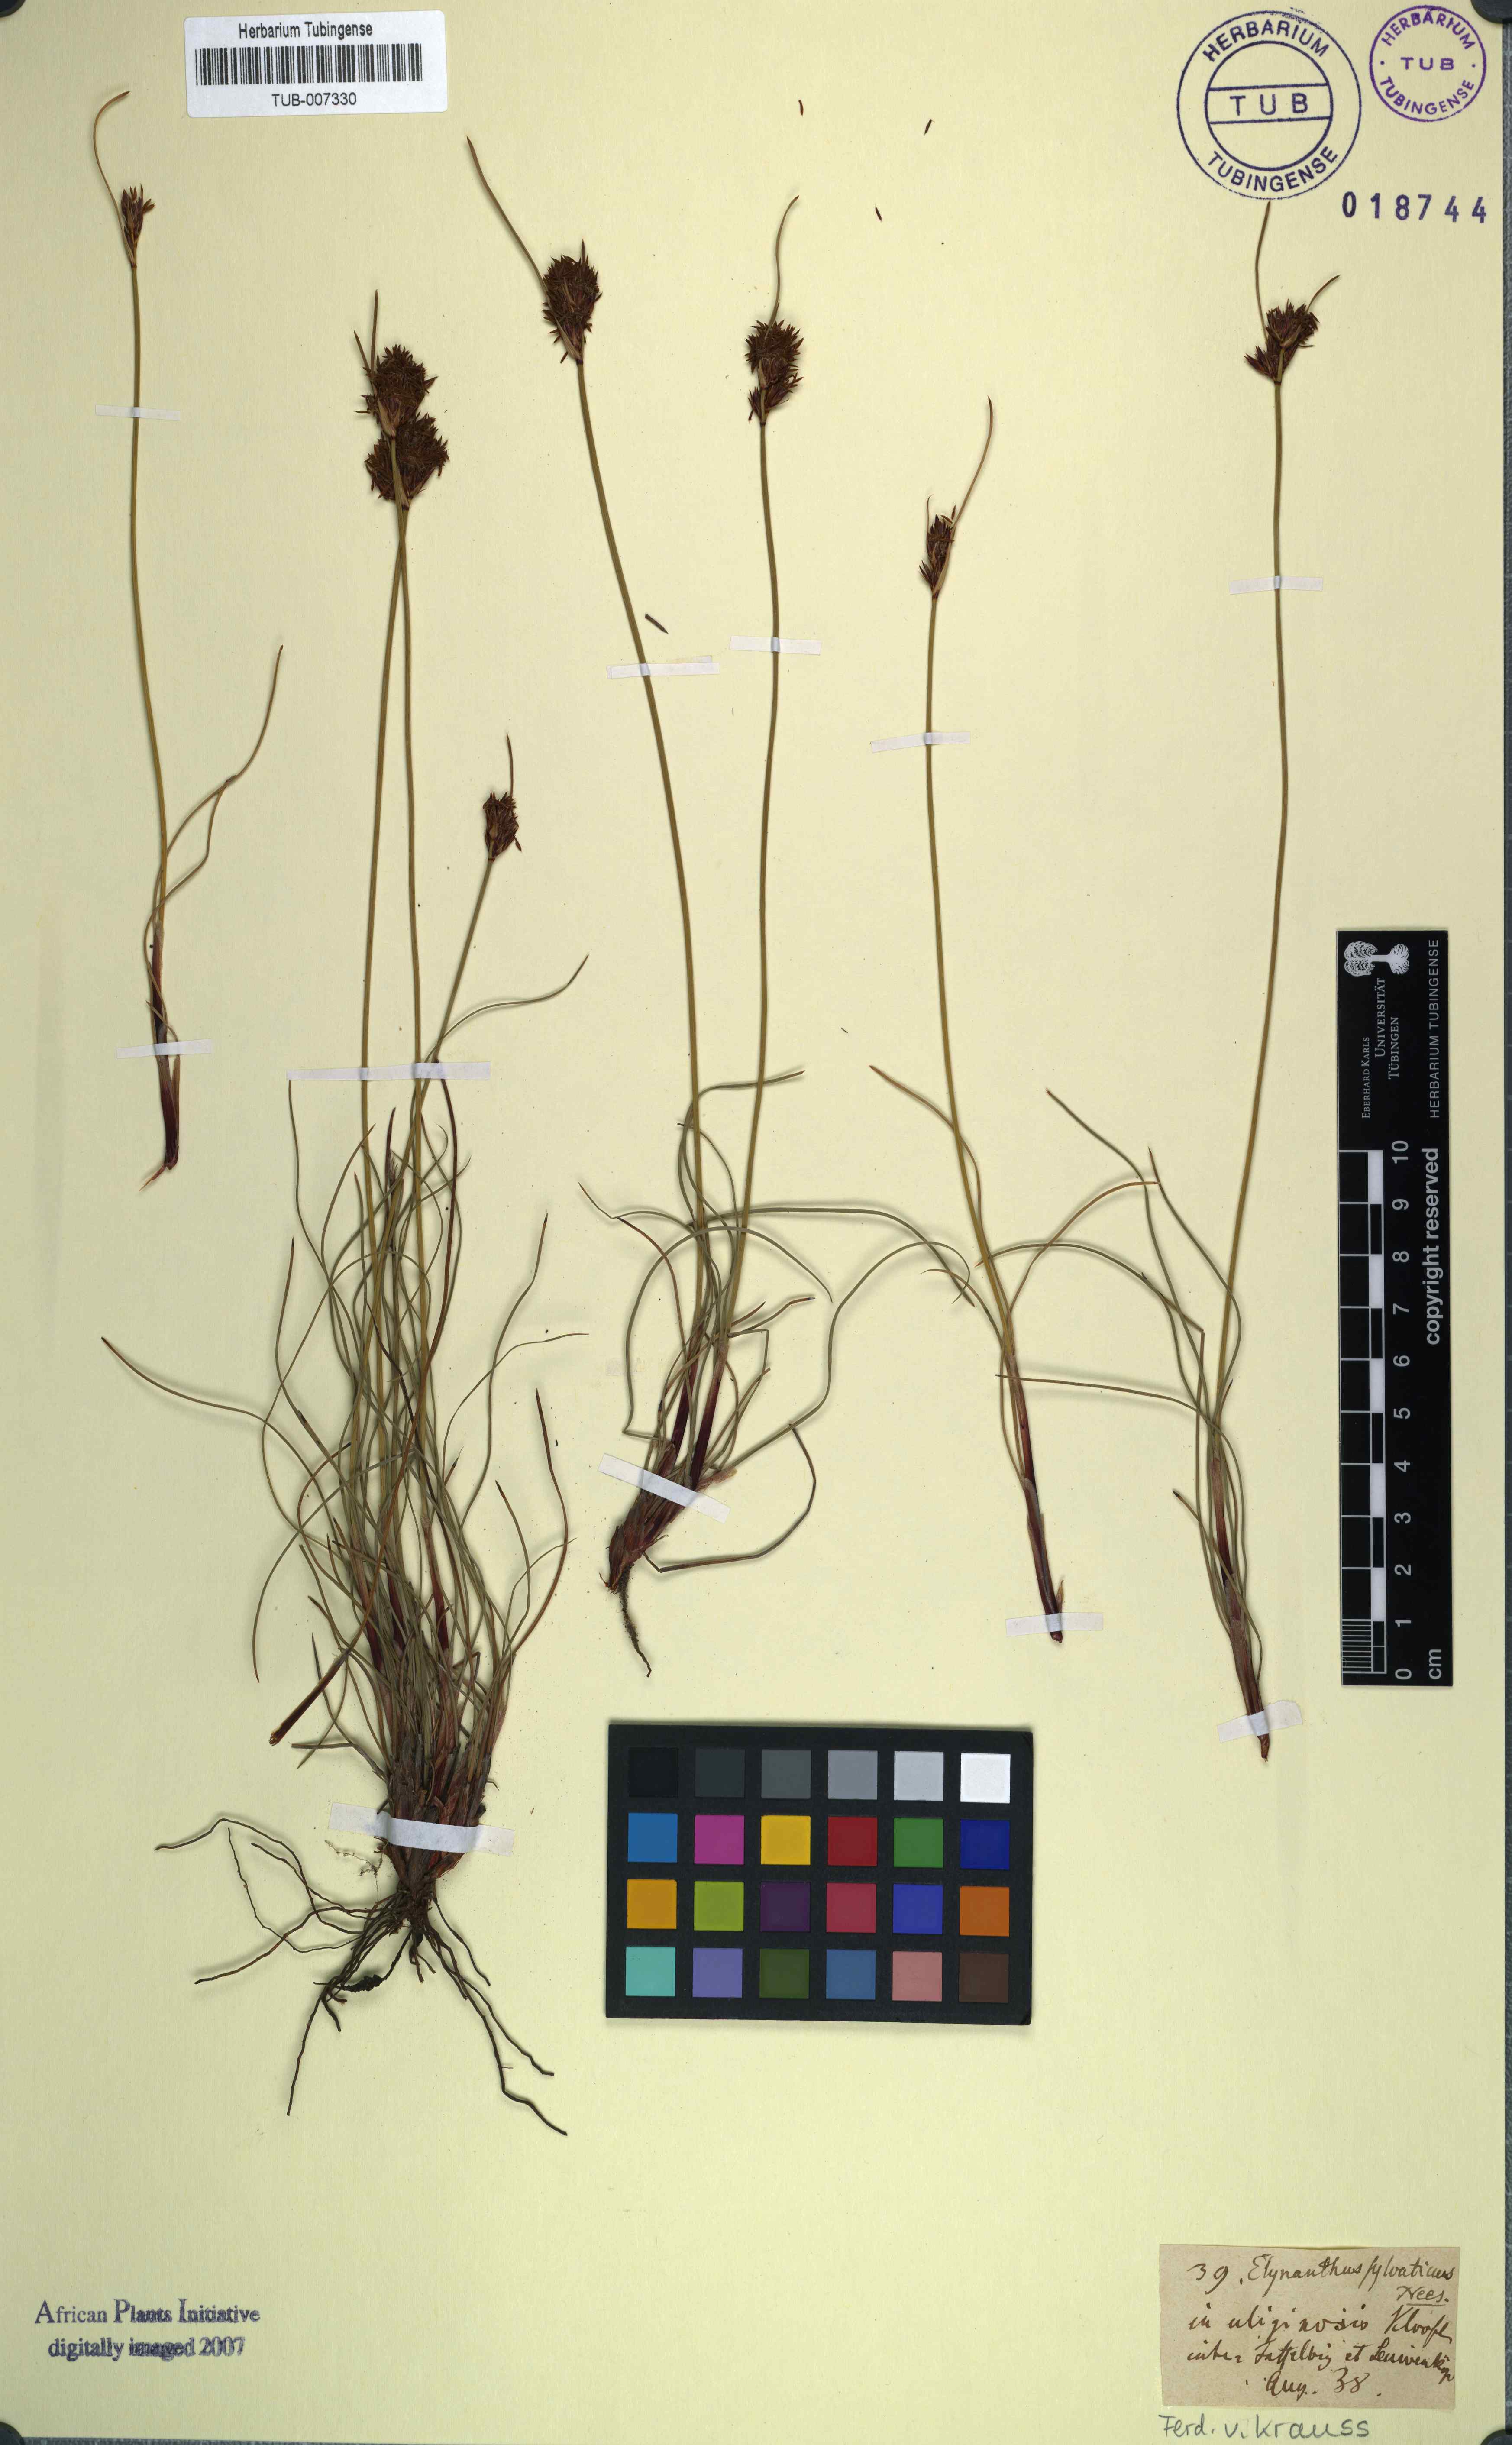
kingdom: Plantae
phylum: Tracheophyta
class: Liliopsida
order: Poales
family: Cyperaceae
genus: Schoenus
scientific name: Schoenus auritus
